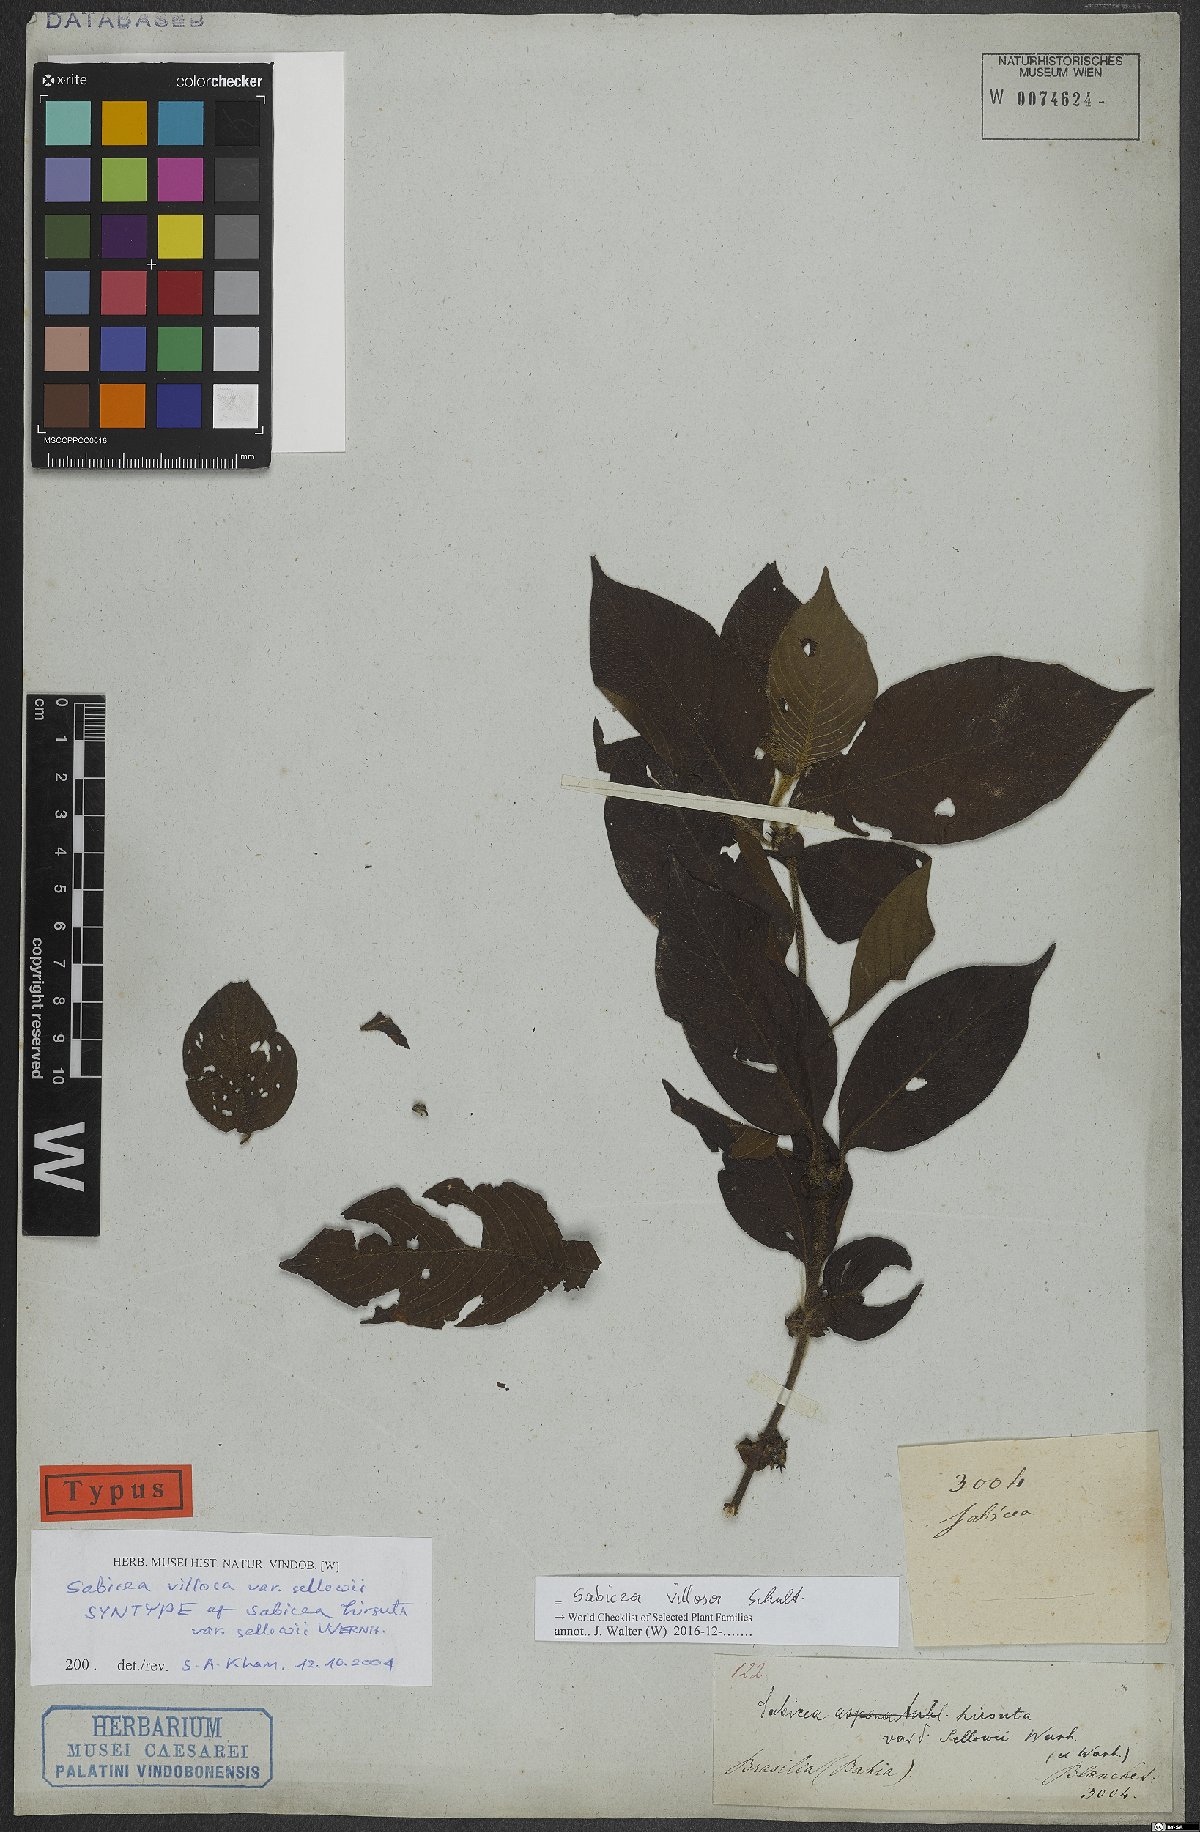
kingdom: Plantae
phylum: Tracheophyta
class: Magnoliopsida
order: Gentianales
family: Rubiaceae
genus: Sabicea
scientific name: Sabicea villosa
